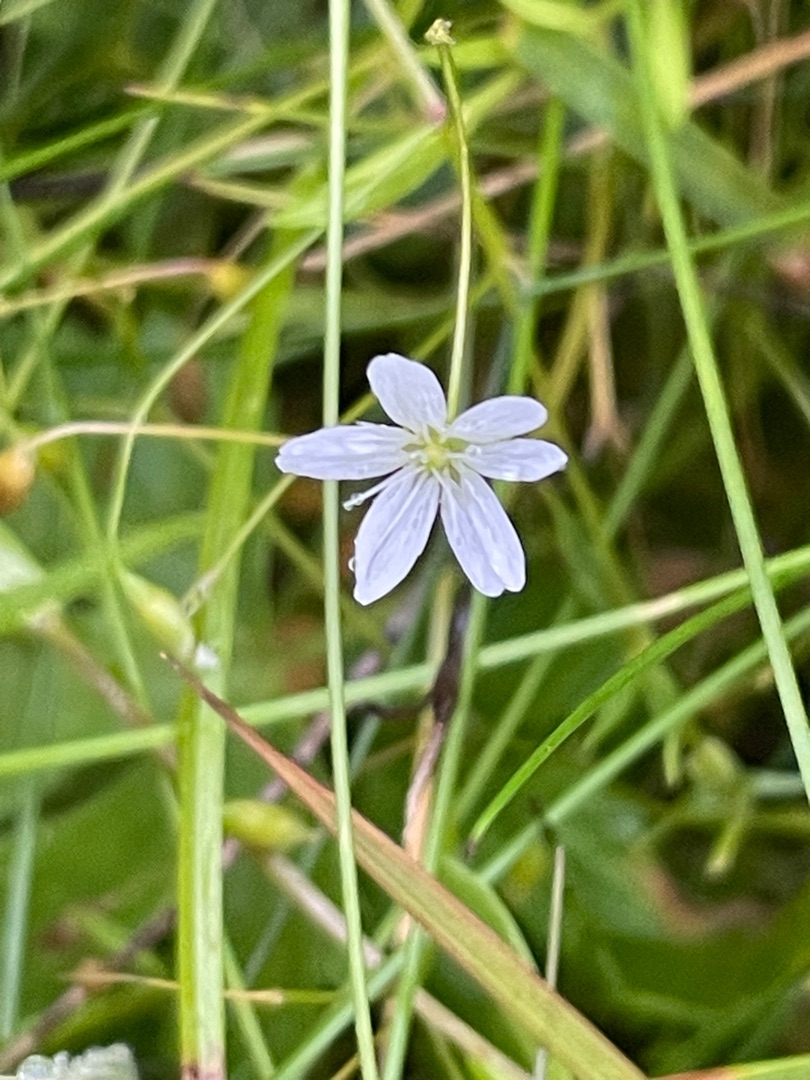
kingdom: Plantae
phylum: Tracheophyta
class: Magnoliopsida
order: Caryophyllales
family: Caryophyllaceae
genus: Stellaria
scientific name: Stellaria palustris
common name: Kær-fladstjerne
